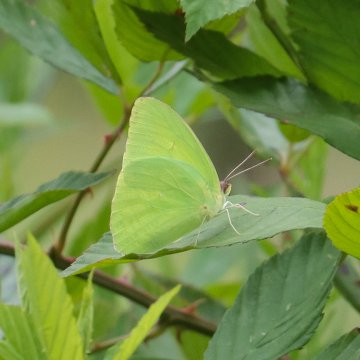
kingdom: Animalia
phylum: Arthropoda
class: Insecta
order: Lepidoptera
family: Pieridae
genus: Phoebis
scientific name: Phoebis sennae
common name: Cloudless Sulphur
